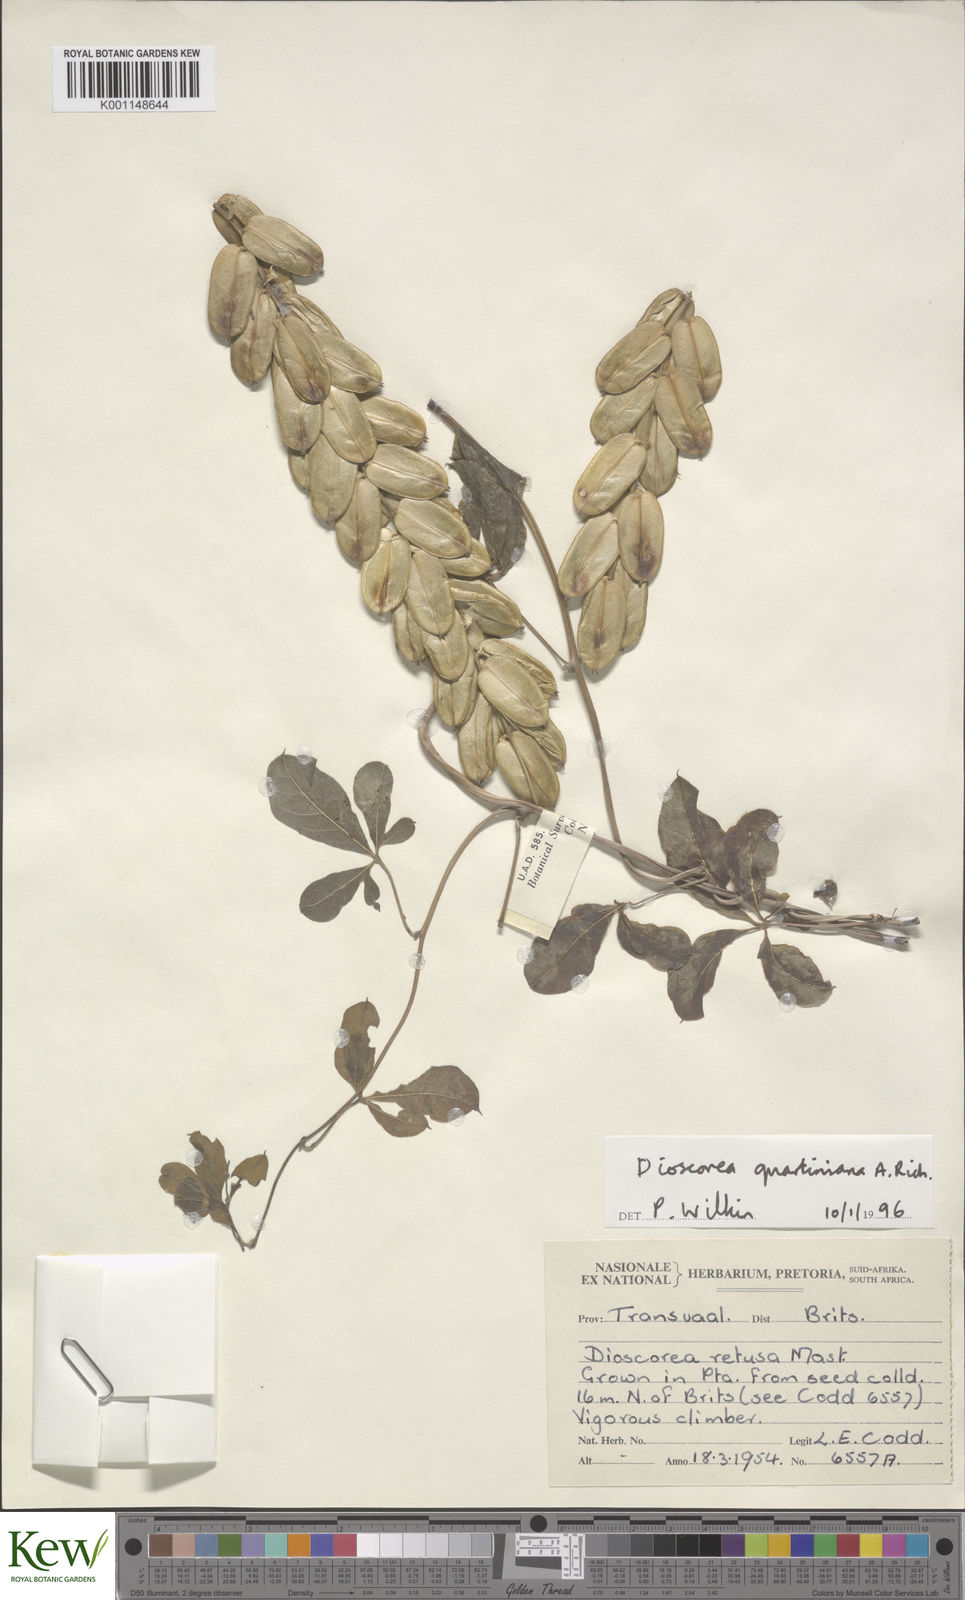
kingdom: Plantae
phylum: Tracheophyta
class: Liliopsida
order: Dioscoreales
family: Dioscoreaceae
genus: Dioscorea
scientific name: Dioscorea quartiniana
